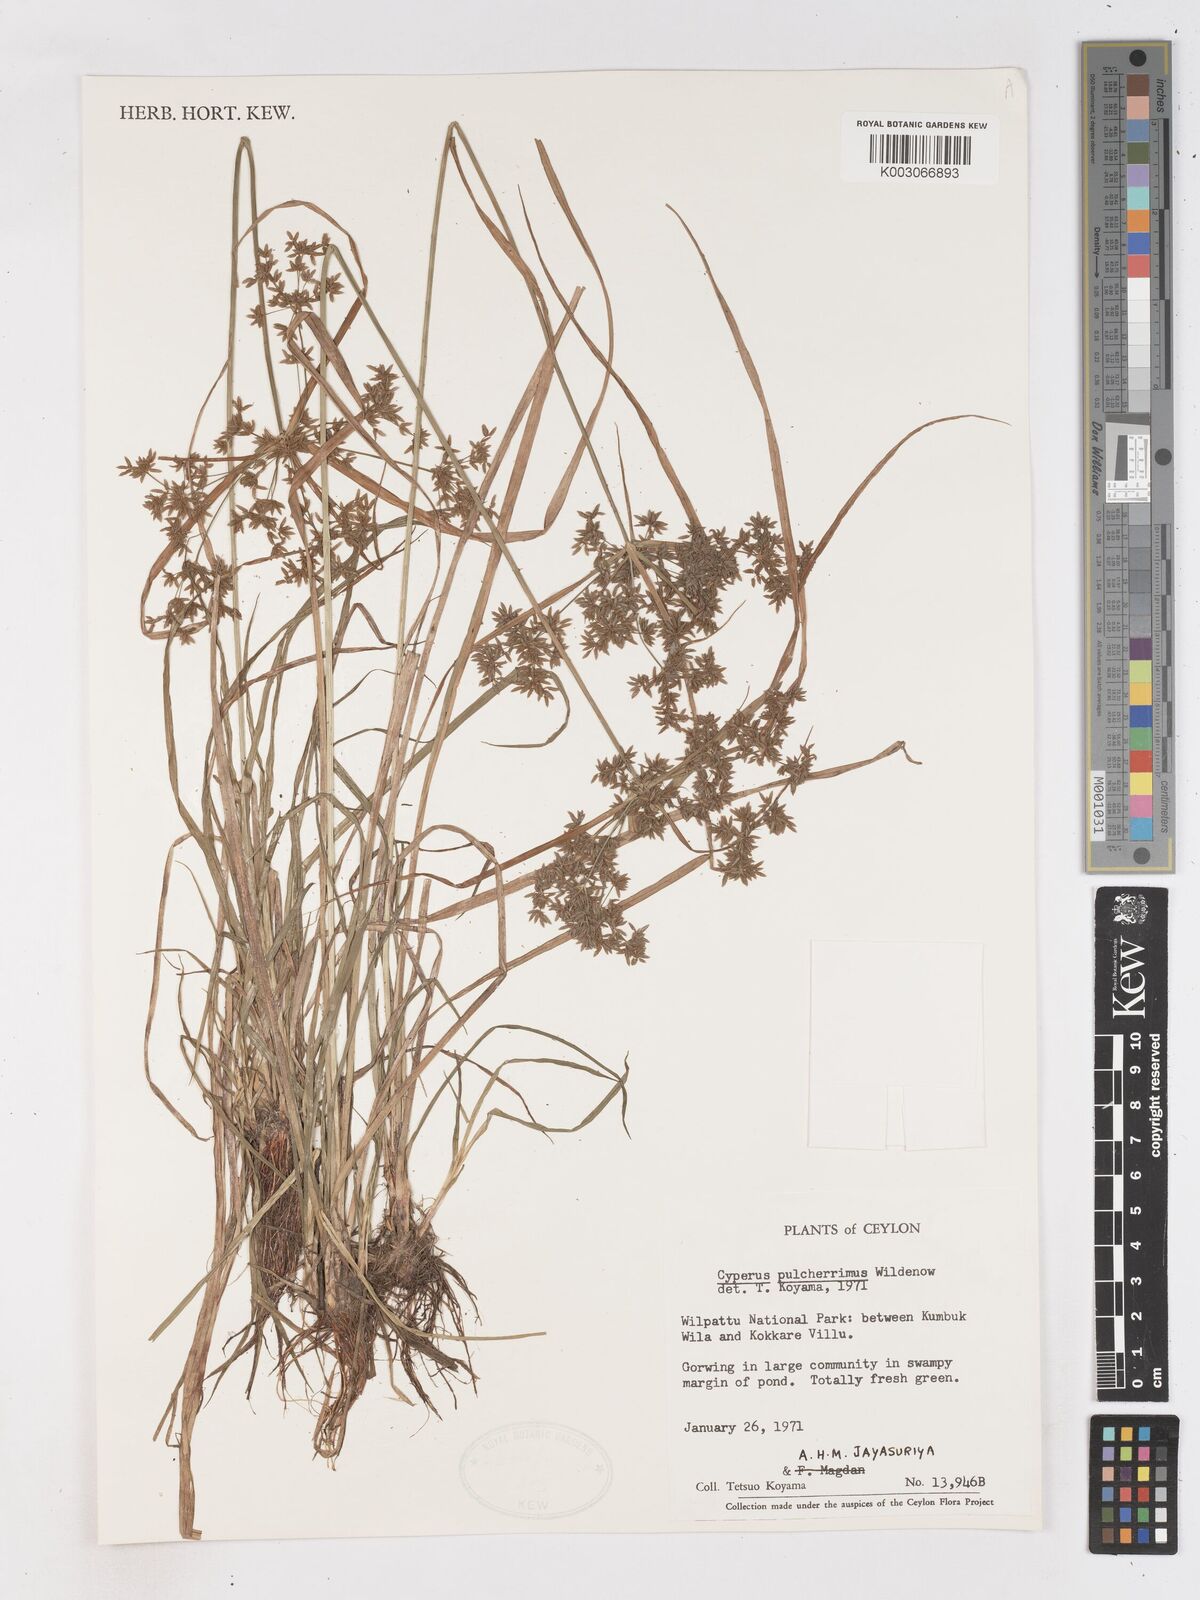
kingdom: Plantae
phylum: Tracheophyta
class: Liliopsida
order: Poales
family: Cyperaceae
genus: Cyperus
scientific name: Cyperus pulcherrimus
